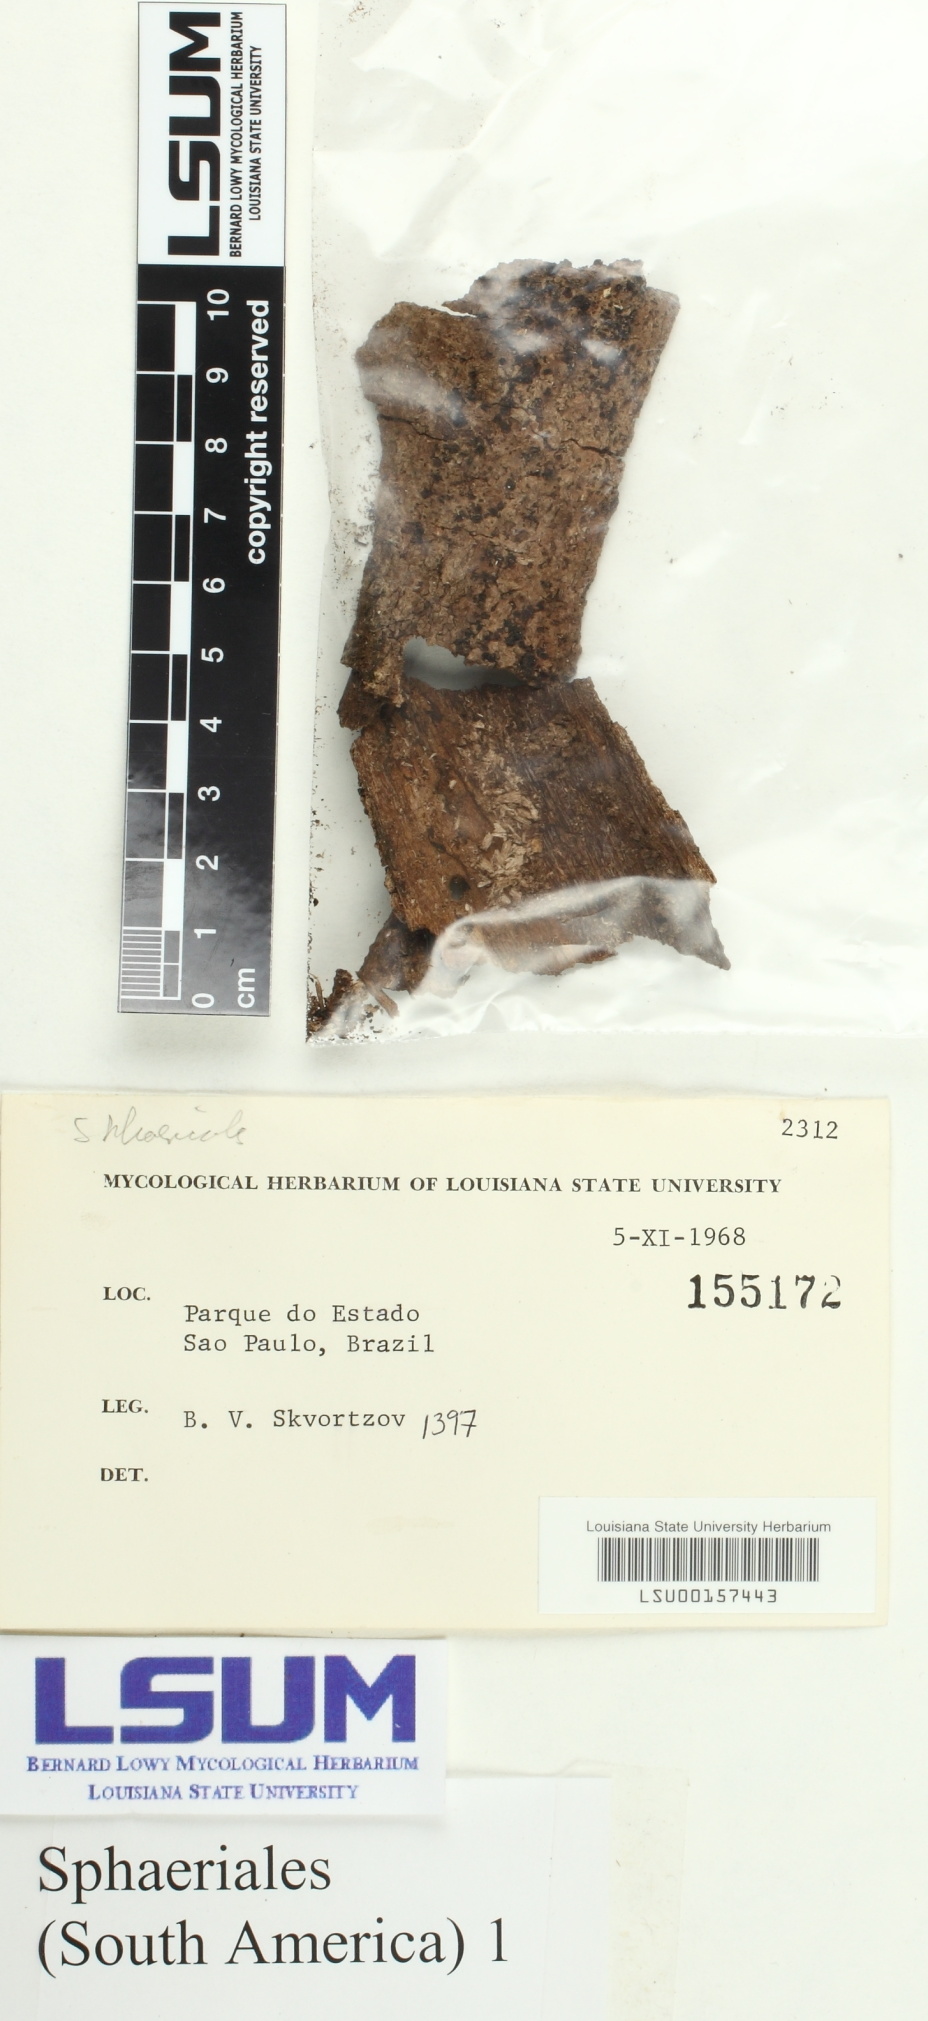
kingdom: Fungi
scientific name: Fungi
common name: Fungi
